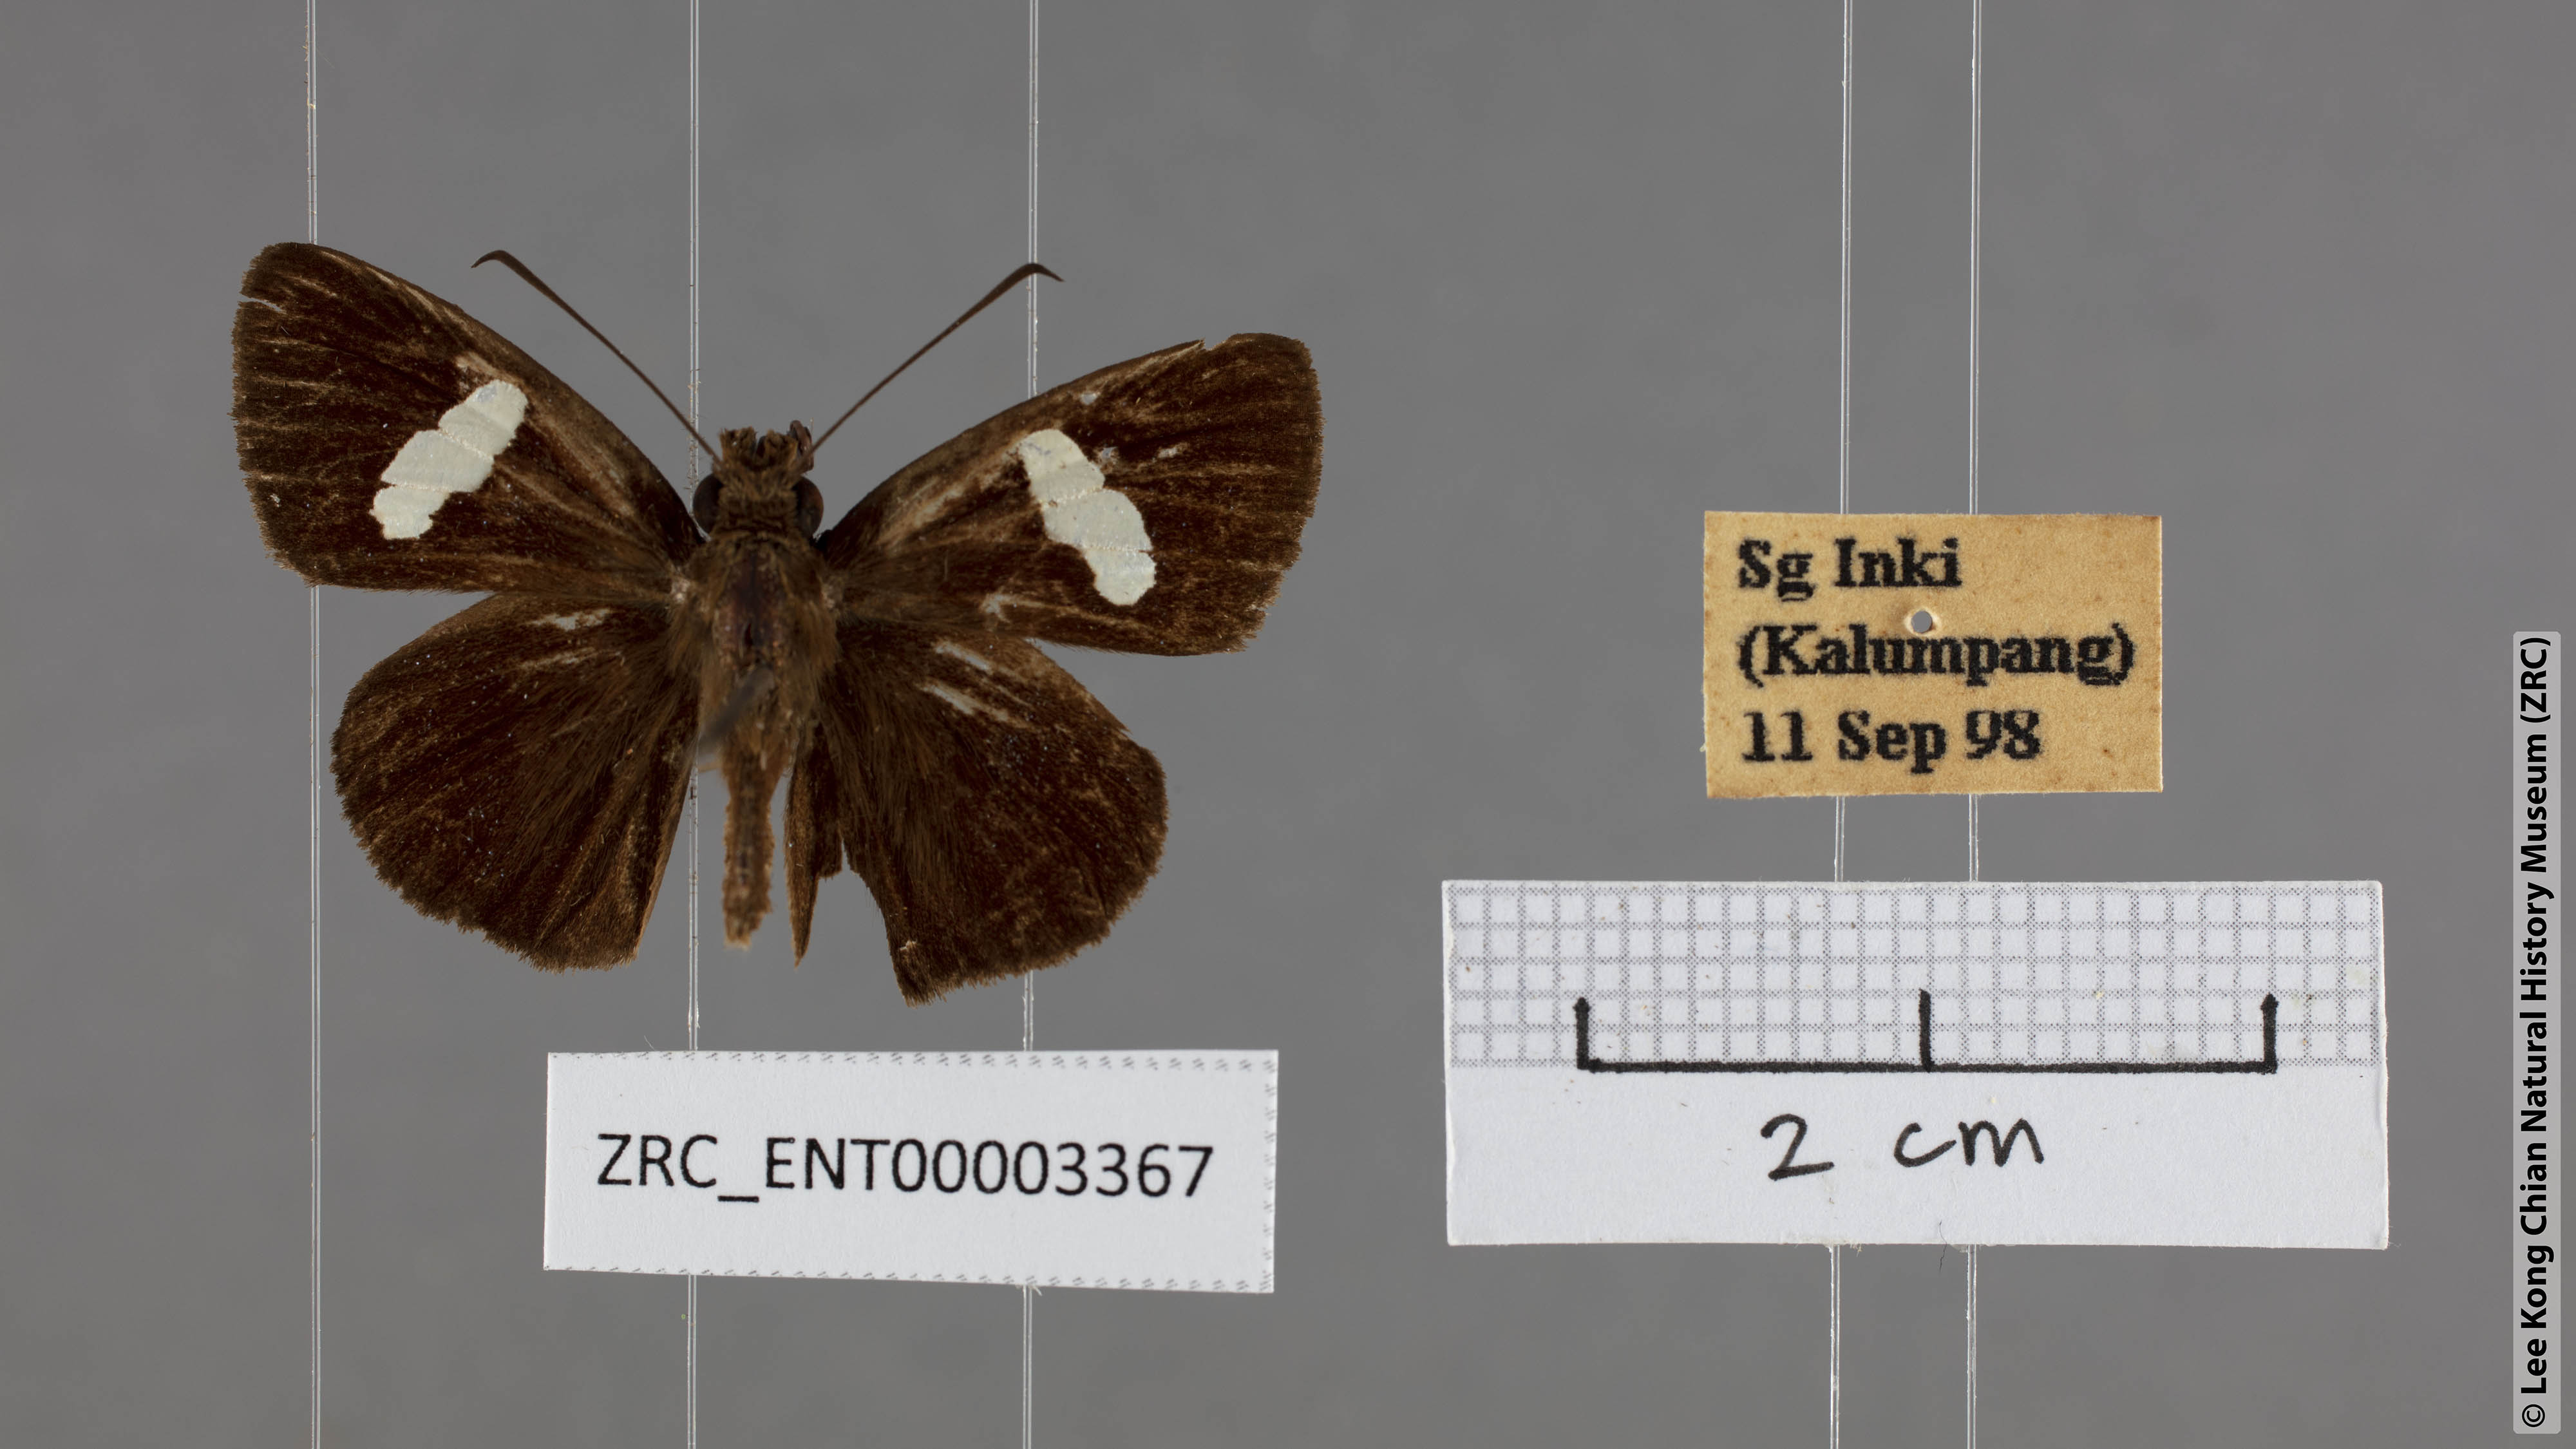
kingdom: Animalia
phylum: Arthropoda
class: Insecta
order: Lepidoptera
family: Hesperiidae
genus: Notocrypta
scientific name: Notocrypta pria
